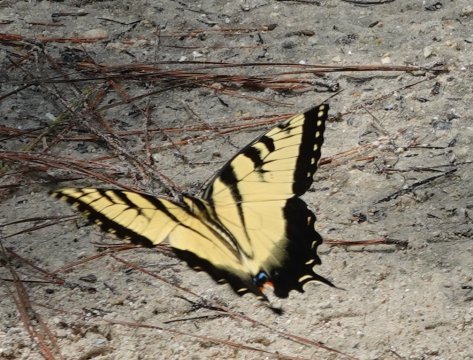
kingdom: Animalia
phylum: Arthropoda
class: Insecta
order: Lepidoptera
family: Papilionidae
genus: Pterourus
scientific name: Pterourus glaucus
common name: Eastern Tiger Swallowtail
